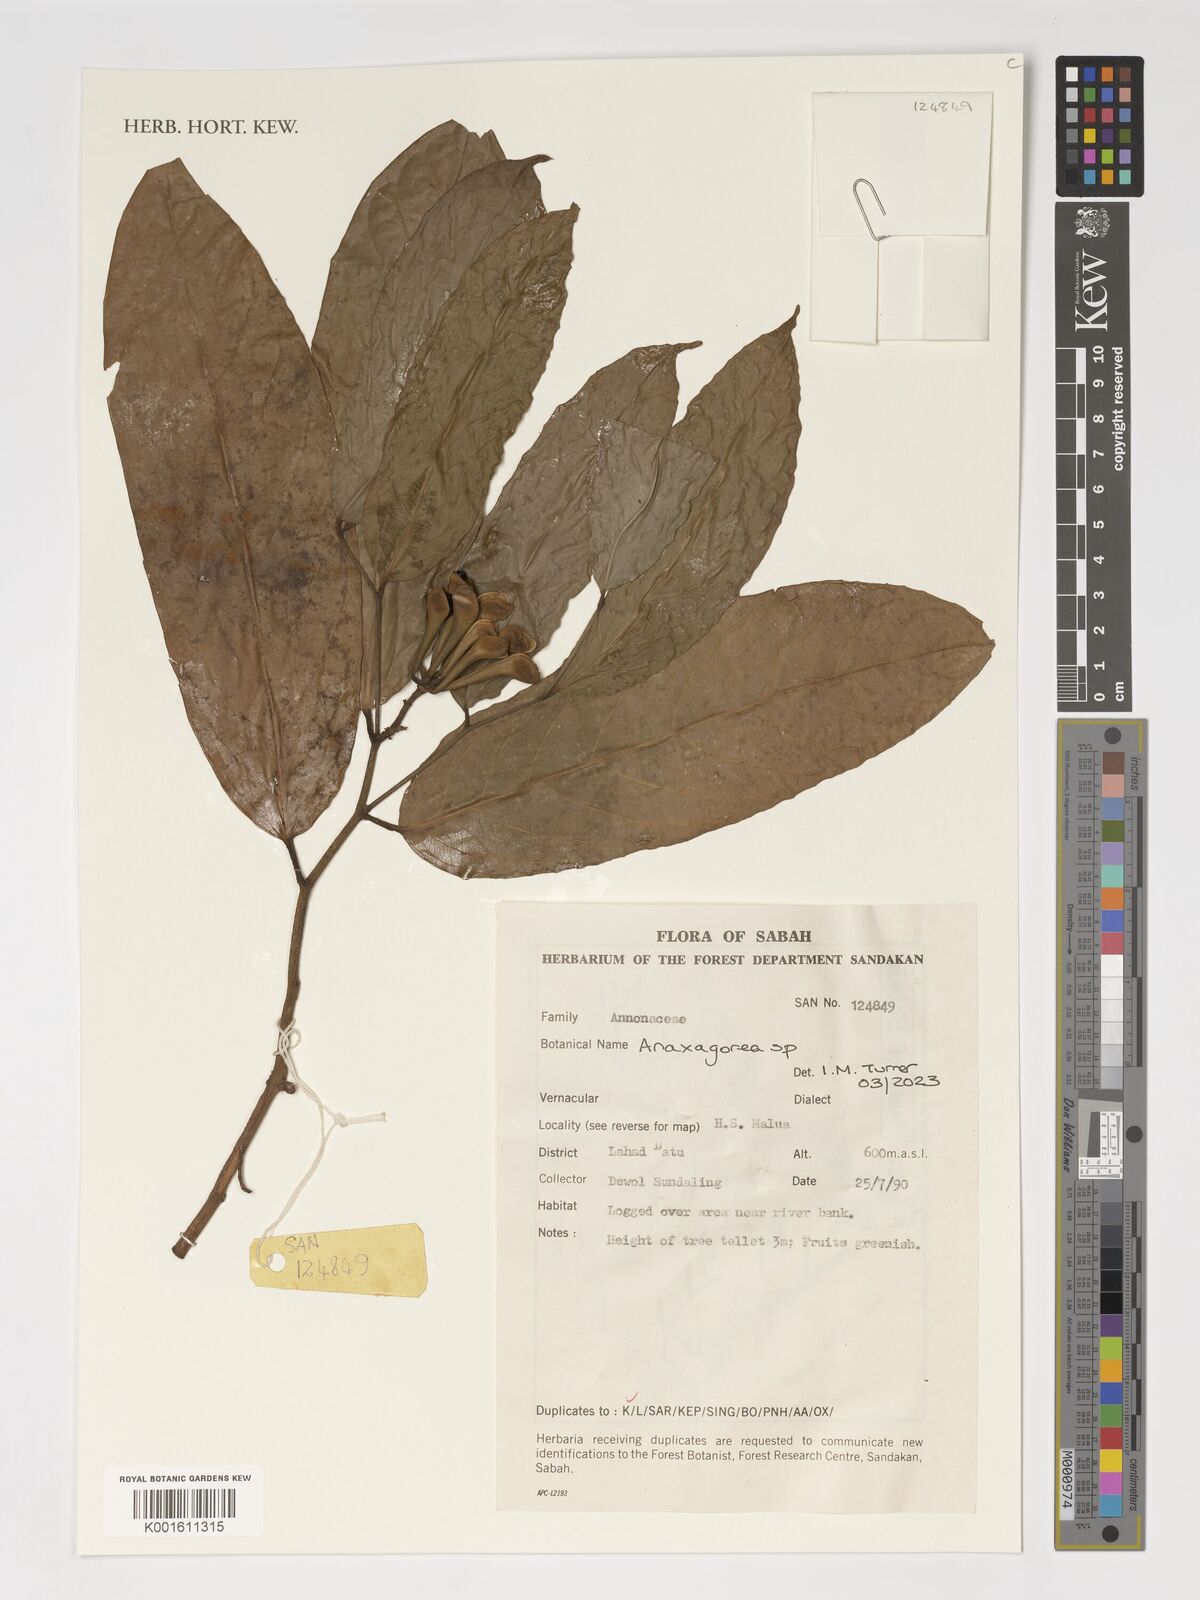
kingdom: Plantae
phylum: Tracheophyta
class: Magnoliopsida
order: Magnoliales
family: Annonaceae
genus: Anaxagorea
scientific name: Anaxagorea
